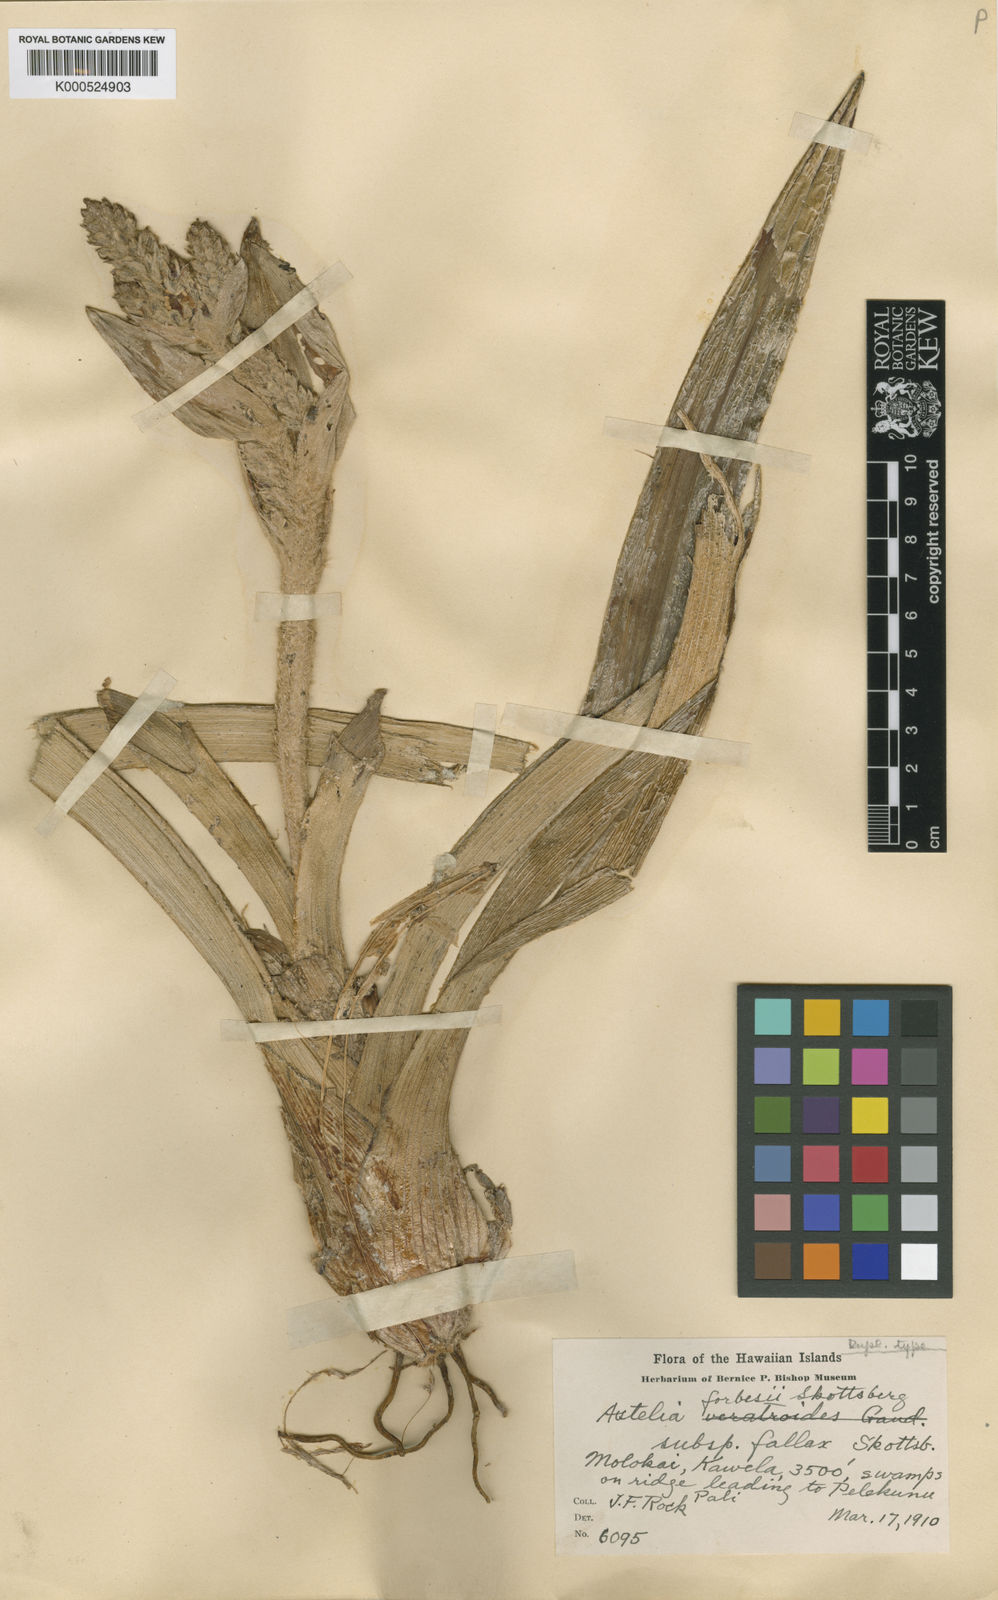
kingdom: Plantae
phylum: Tracheophyta
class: Liliopsida
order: Asparagales
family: Asteliaceae
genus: Astelia
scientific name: Astelia menziesiana
